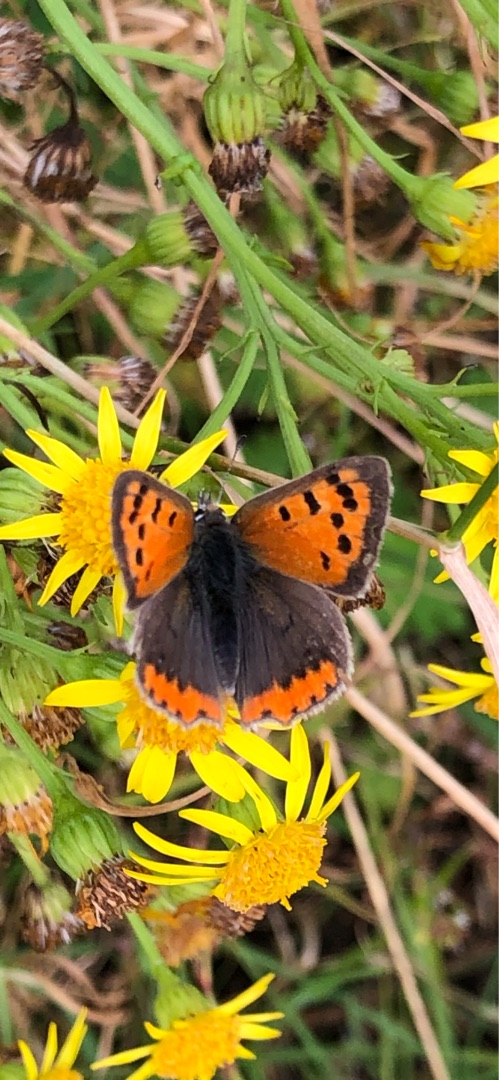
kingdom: Animalia
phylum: Arthropoda
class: Insecta
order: Lepidoptera
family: Lycaenidae
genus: Lycaena
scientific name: Lycaena phlaeas
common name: Lille ildfugl
